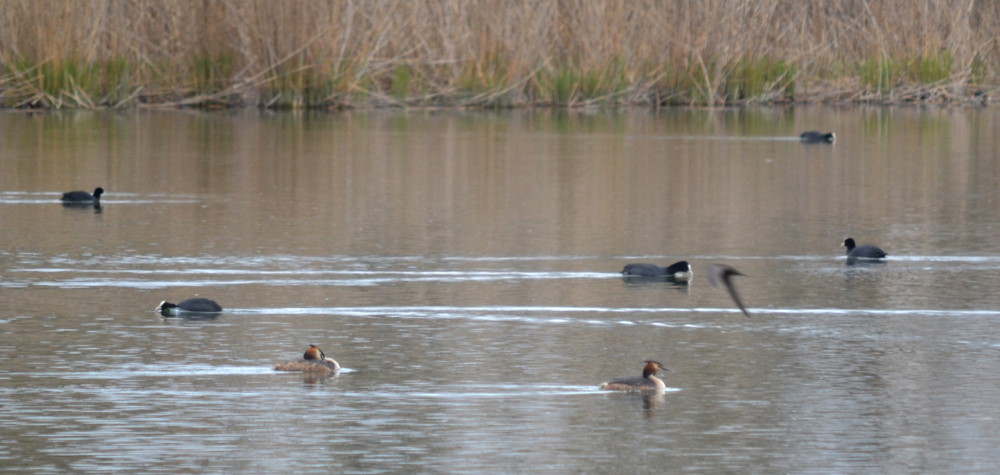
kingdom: Animalia
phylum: Chordata
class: Aves
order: Podicipediformes
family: Podicipedidae
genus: Podiceps
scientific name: Podiceps cristatus
